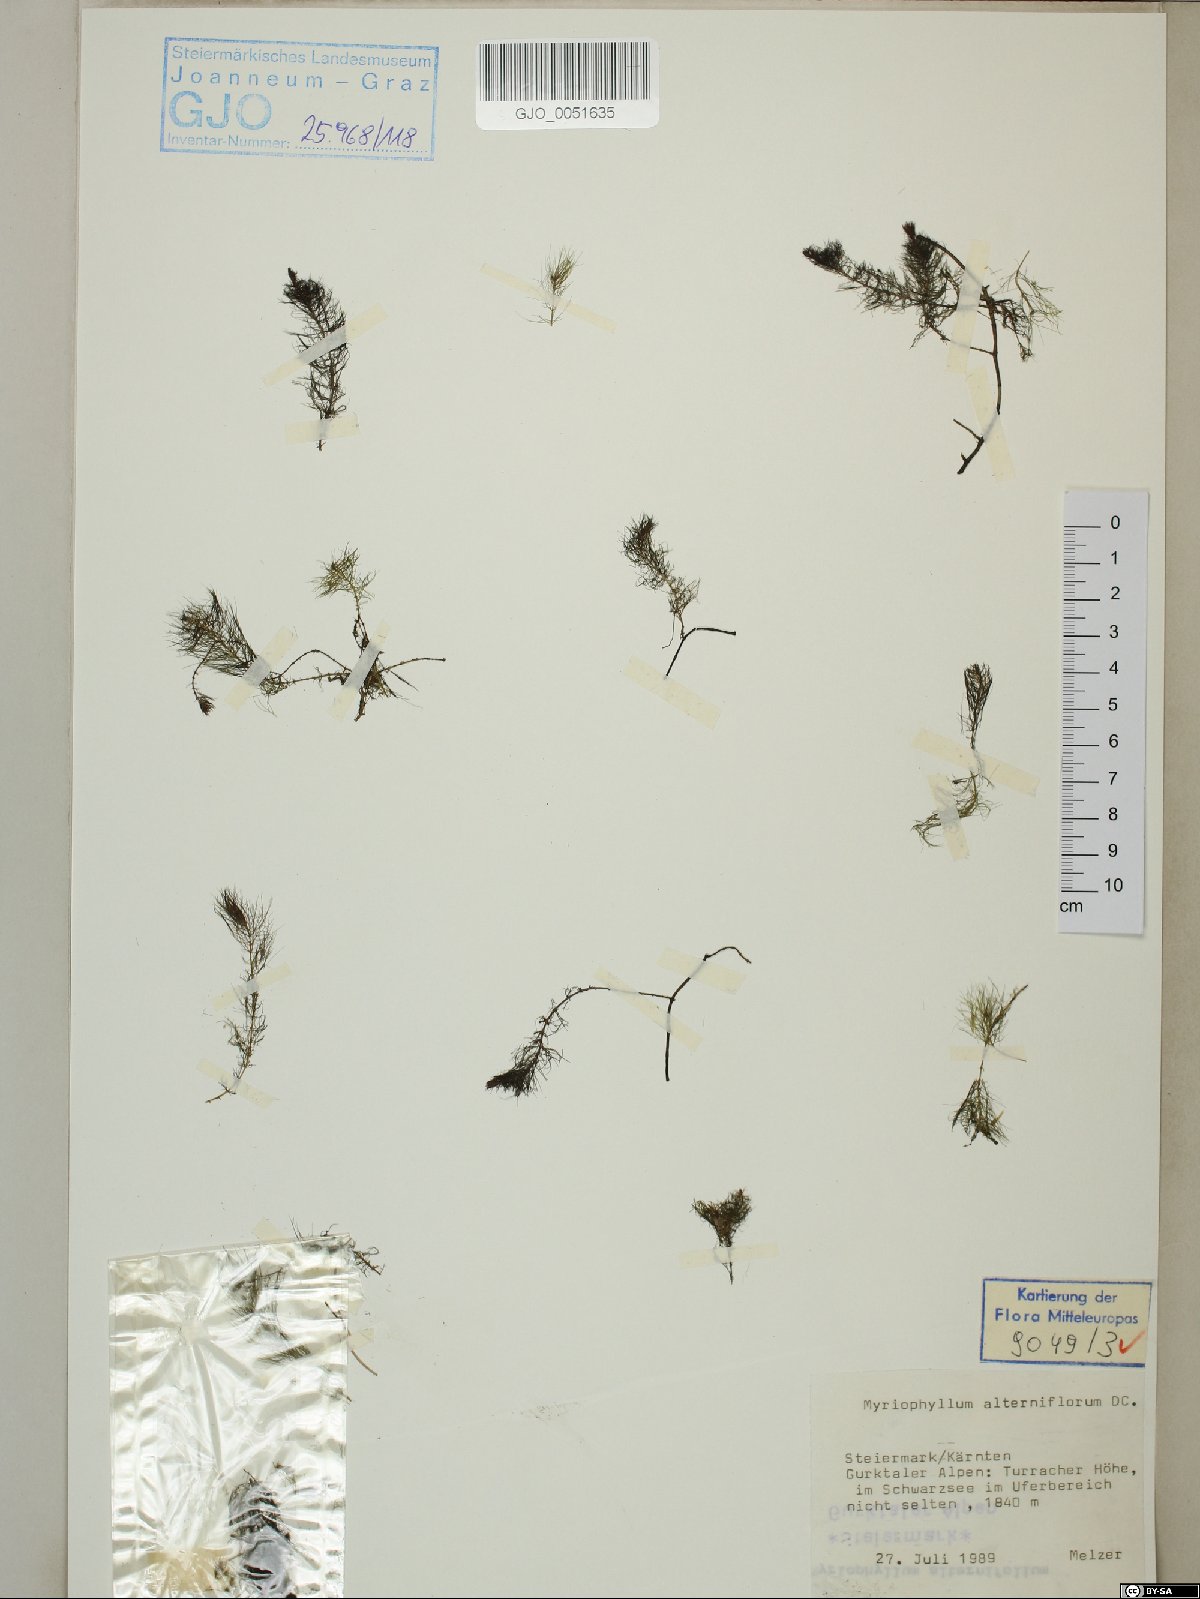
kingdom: Plantae
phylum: Tracheophyta
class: Magnoliopsida
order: Saxifragales
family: Haloragaceae
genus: Myriophyllum
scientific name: Myriophyllum alterniflorum
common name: Alternate water-milfoil
